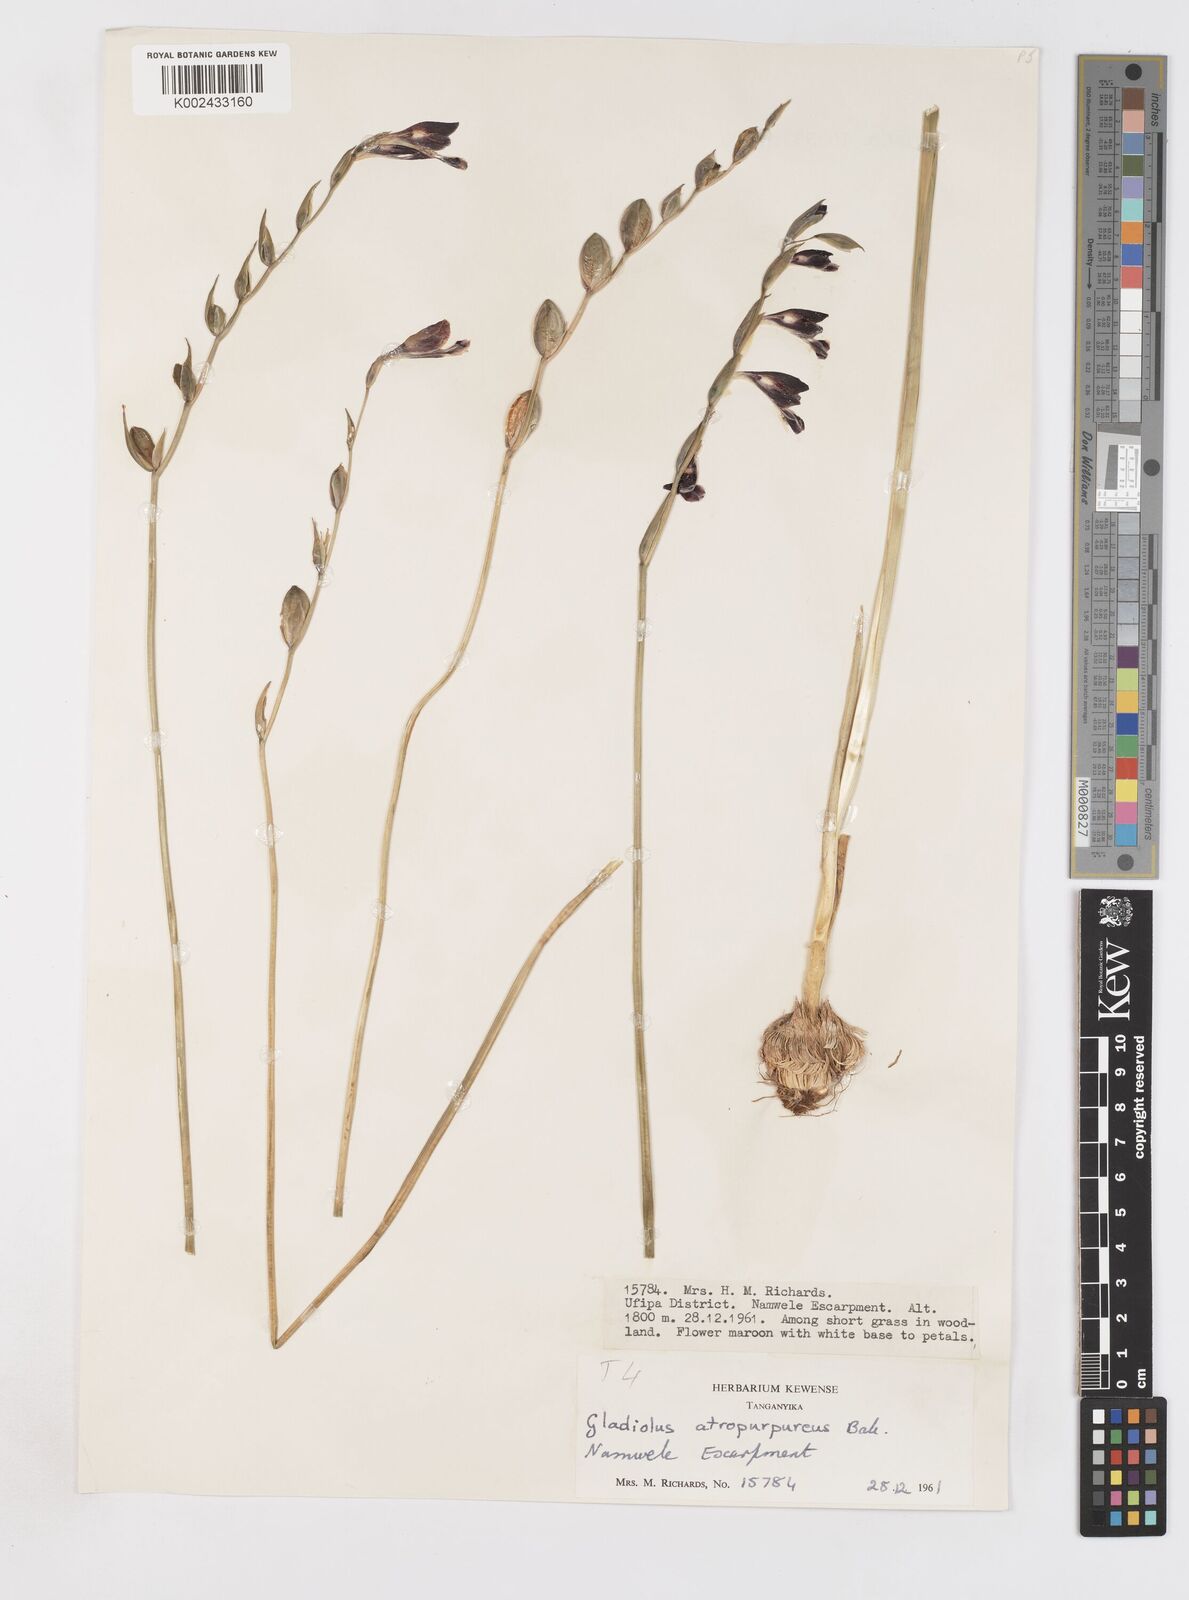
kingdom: Plantae
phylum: Tracheophyta
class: Liliopsida
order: Asparagales
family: Iridaceae
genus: Gladiolus
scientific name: Gladiolus atropurpureus
